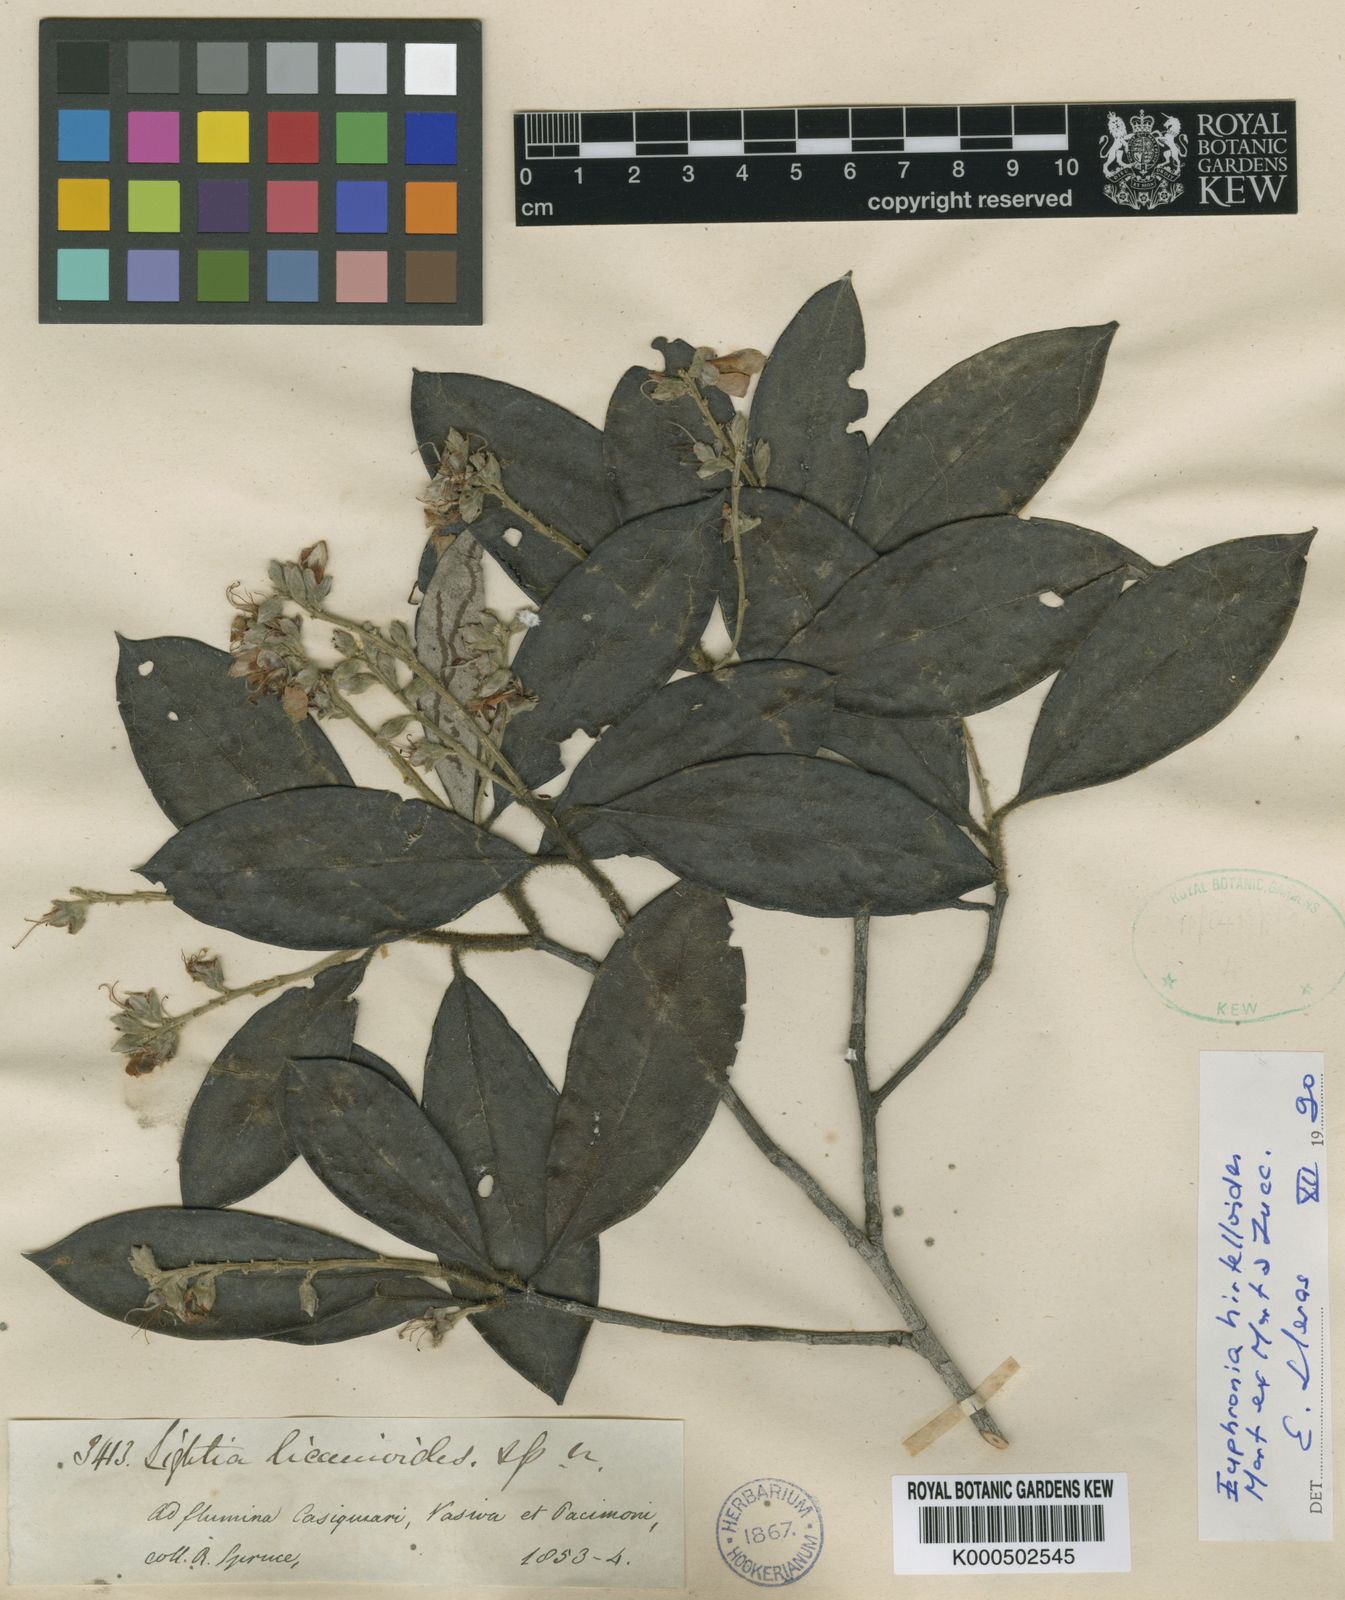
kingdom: Plantae
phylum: Tracheophyta
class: Magnoliopsida
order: Malpighiales
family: Euphroniaceae
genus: Euphronia
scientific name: Euphronia hirtelloides
